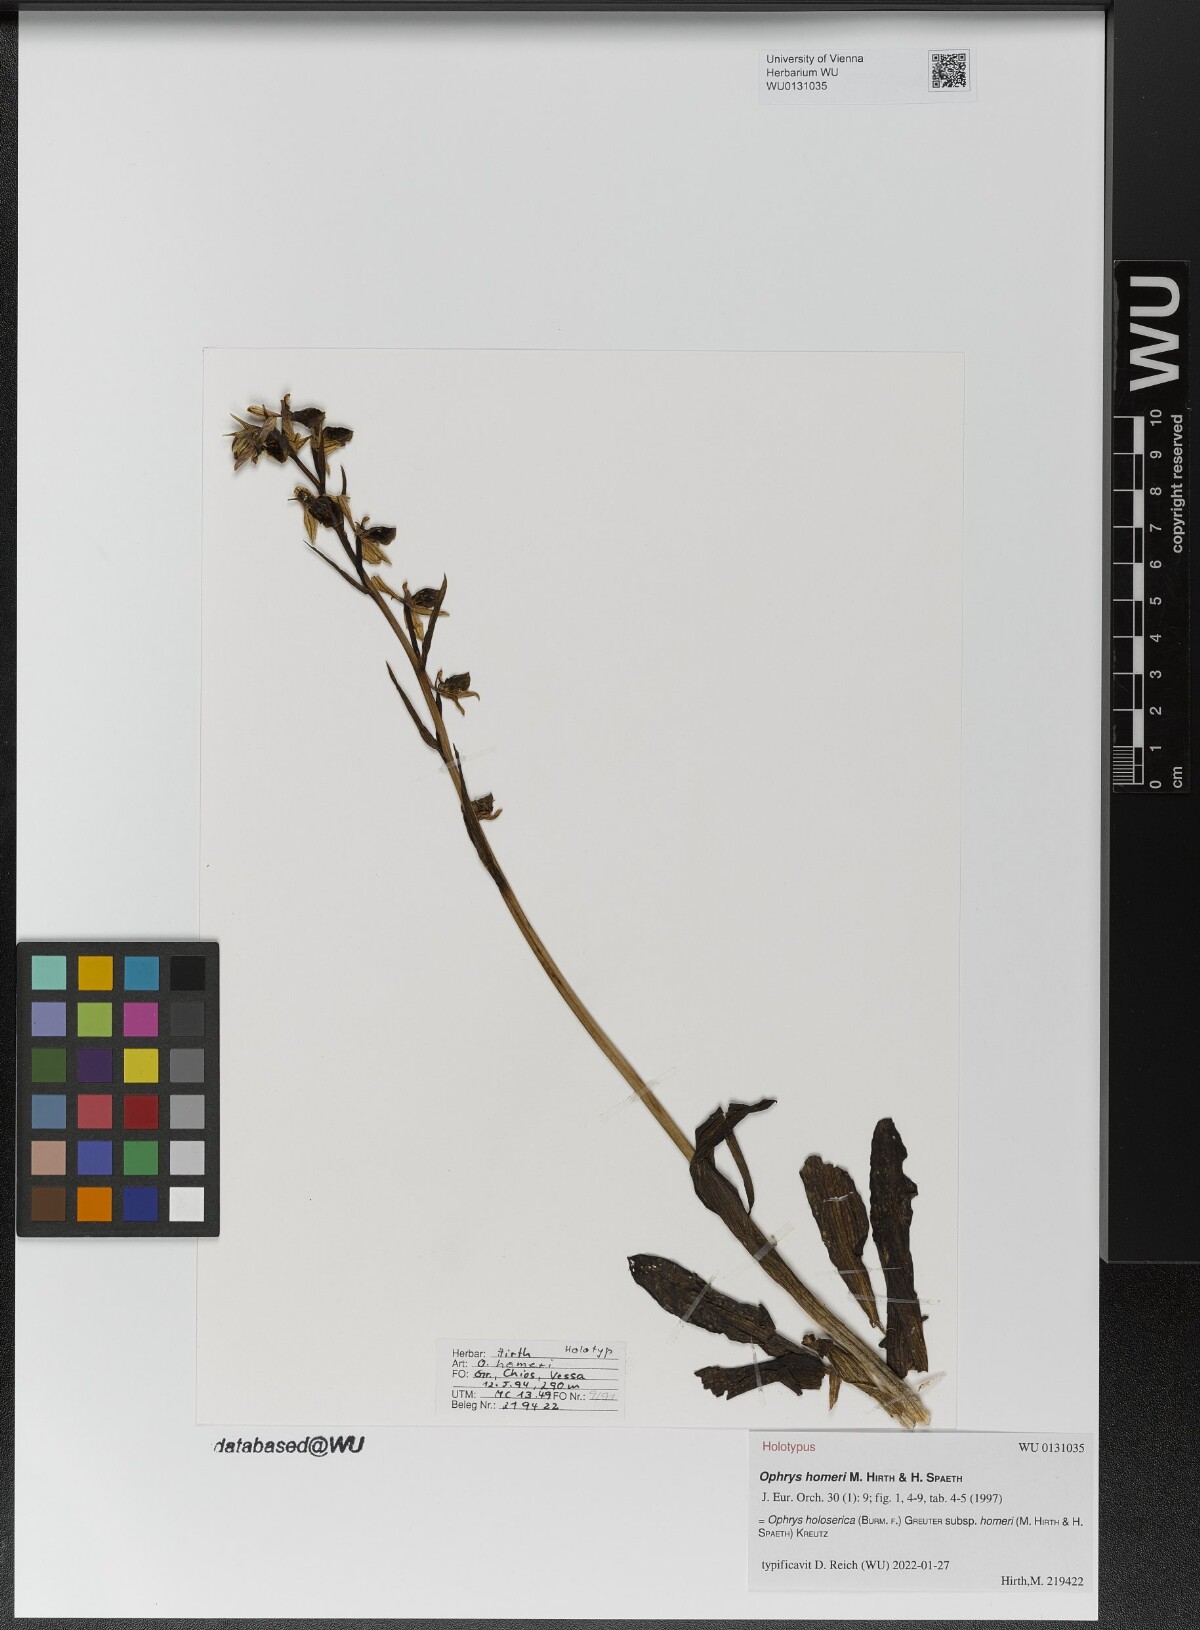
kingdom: Plantae
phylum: Tracheophyta
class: Liliopsida
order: Asparagales
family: Orchidaceae
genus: Ophrys
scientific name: Ophrys vicina
